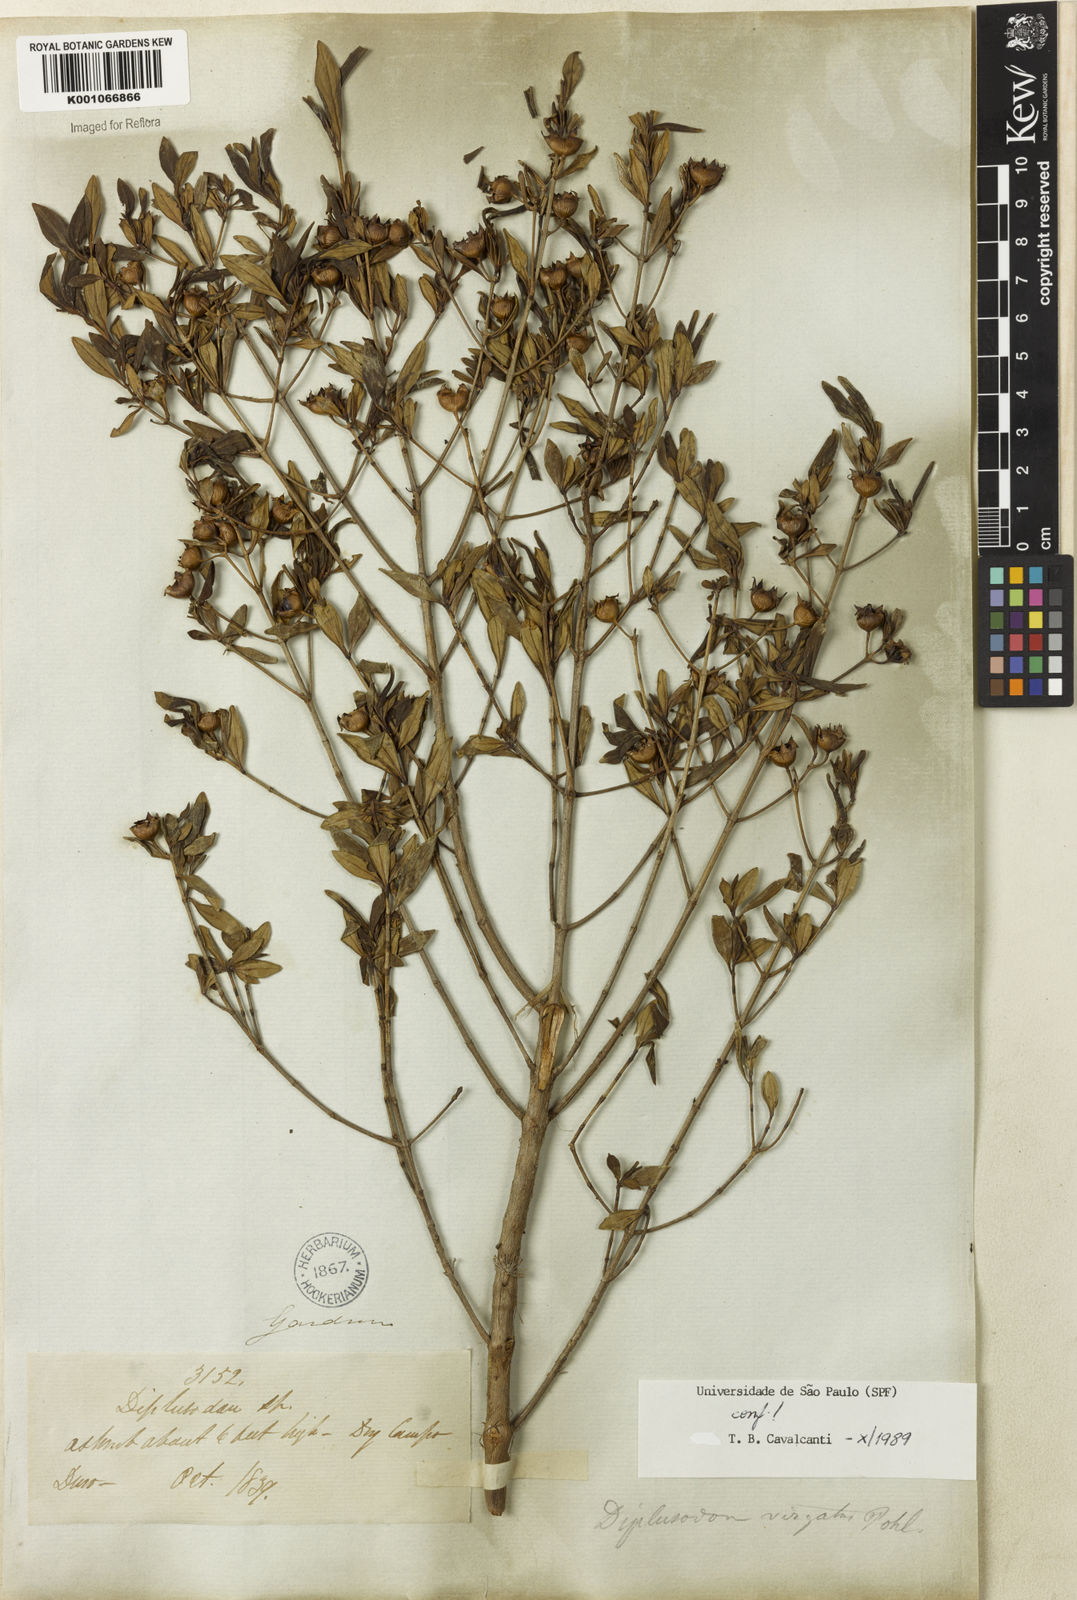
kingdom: Plantae
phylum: Tracheophyta
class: Magnoliopsida
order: Myrtales
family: Lythraceae
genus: Diplusodon
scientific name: Diplusodon virgatus
